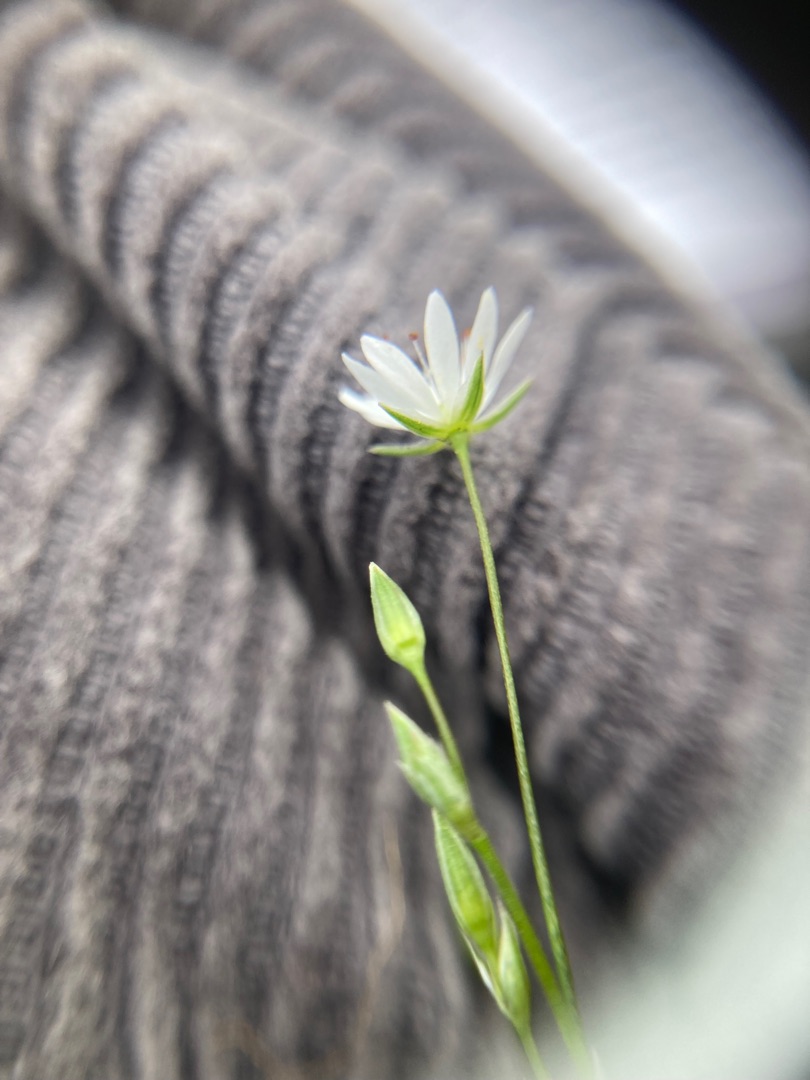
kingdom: Plantae
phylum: Tracheophyta
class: Magnoliopsida
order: Caryophyllales
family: Caryophyllaceae
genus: Stellaria
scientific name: Stellaria graminea
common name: Græsbladet fladstjerne
